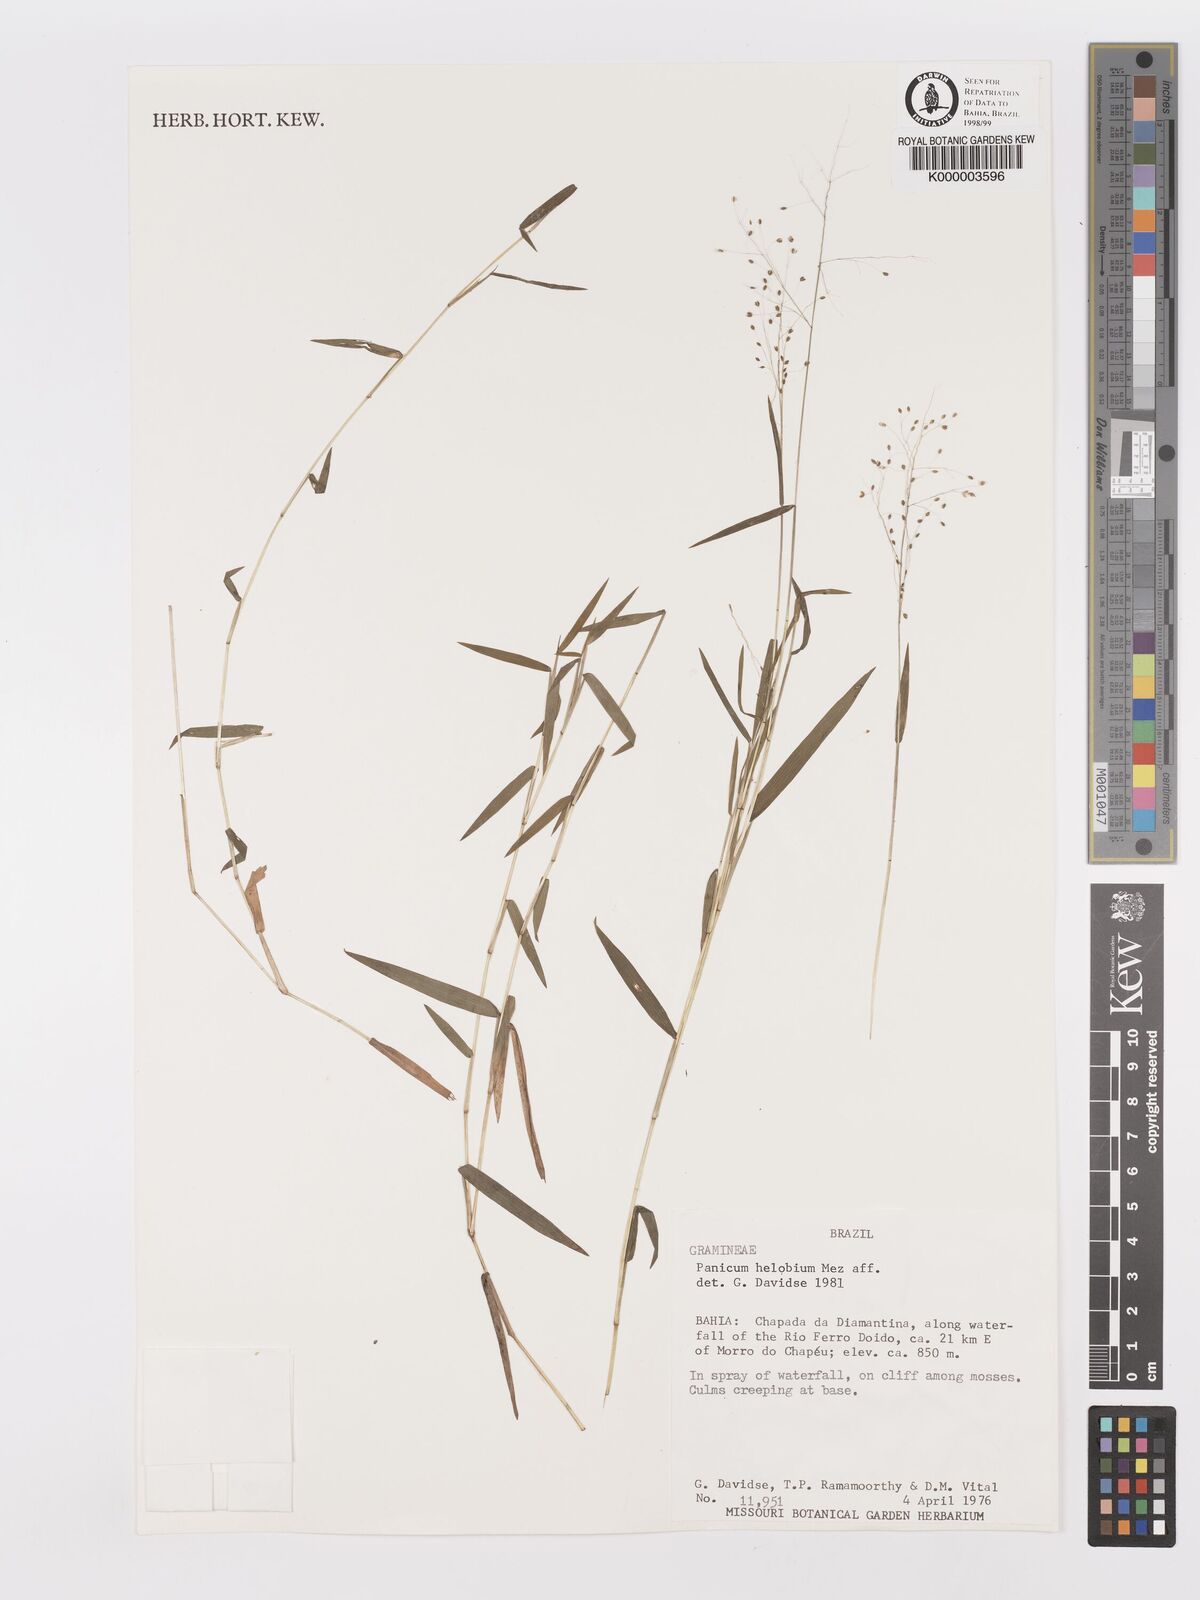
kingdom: Plantae
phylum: Tracheophyta
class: Liliopsida
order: Poales
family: Poaceae
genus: Trichanthecium
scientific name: Trichanthecium schwackeanum
